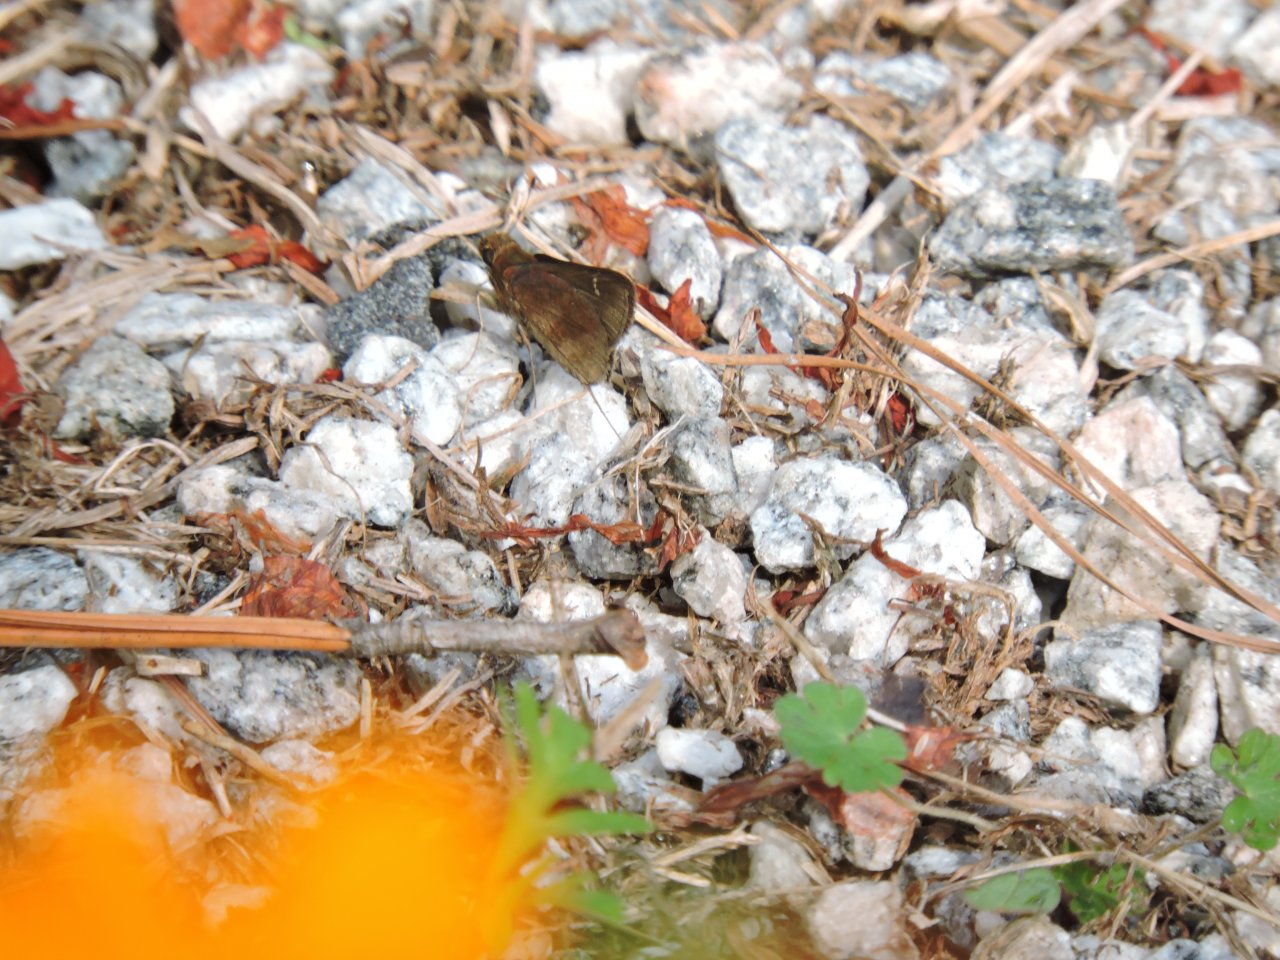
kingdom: Animalia
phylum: Arthropoda
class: Insecta
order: Lepidoptera
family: Hesperiidae
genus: Lerema
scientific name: Lerema accius
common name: Clouded Skipper
